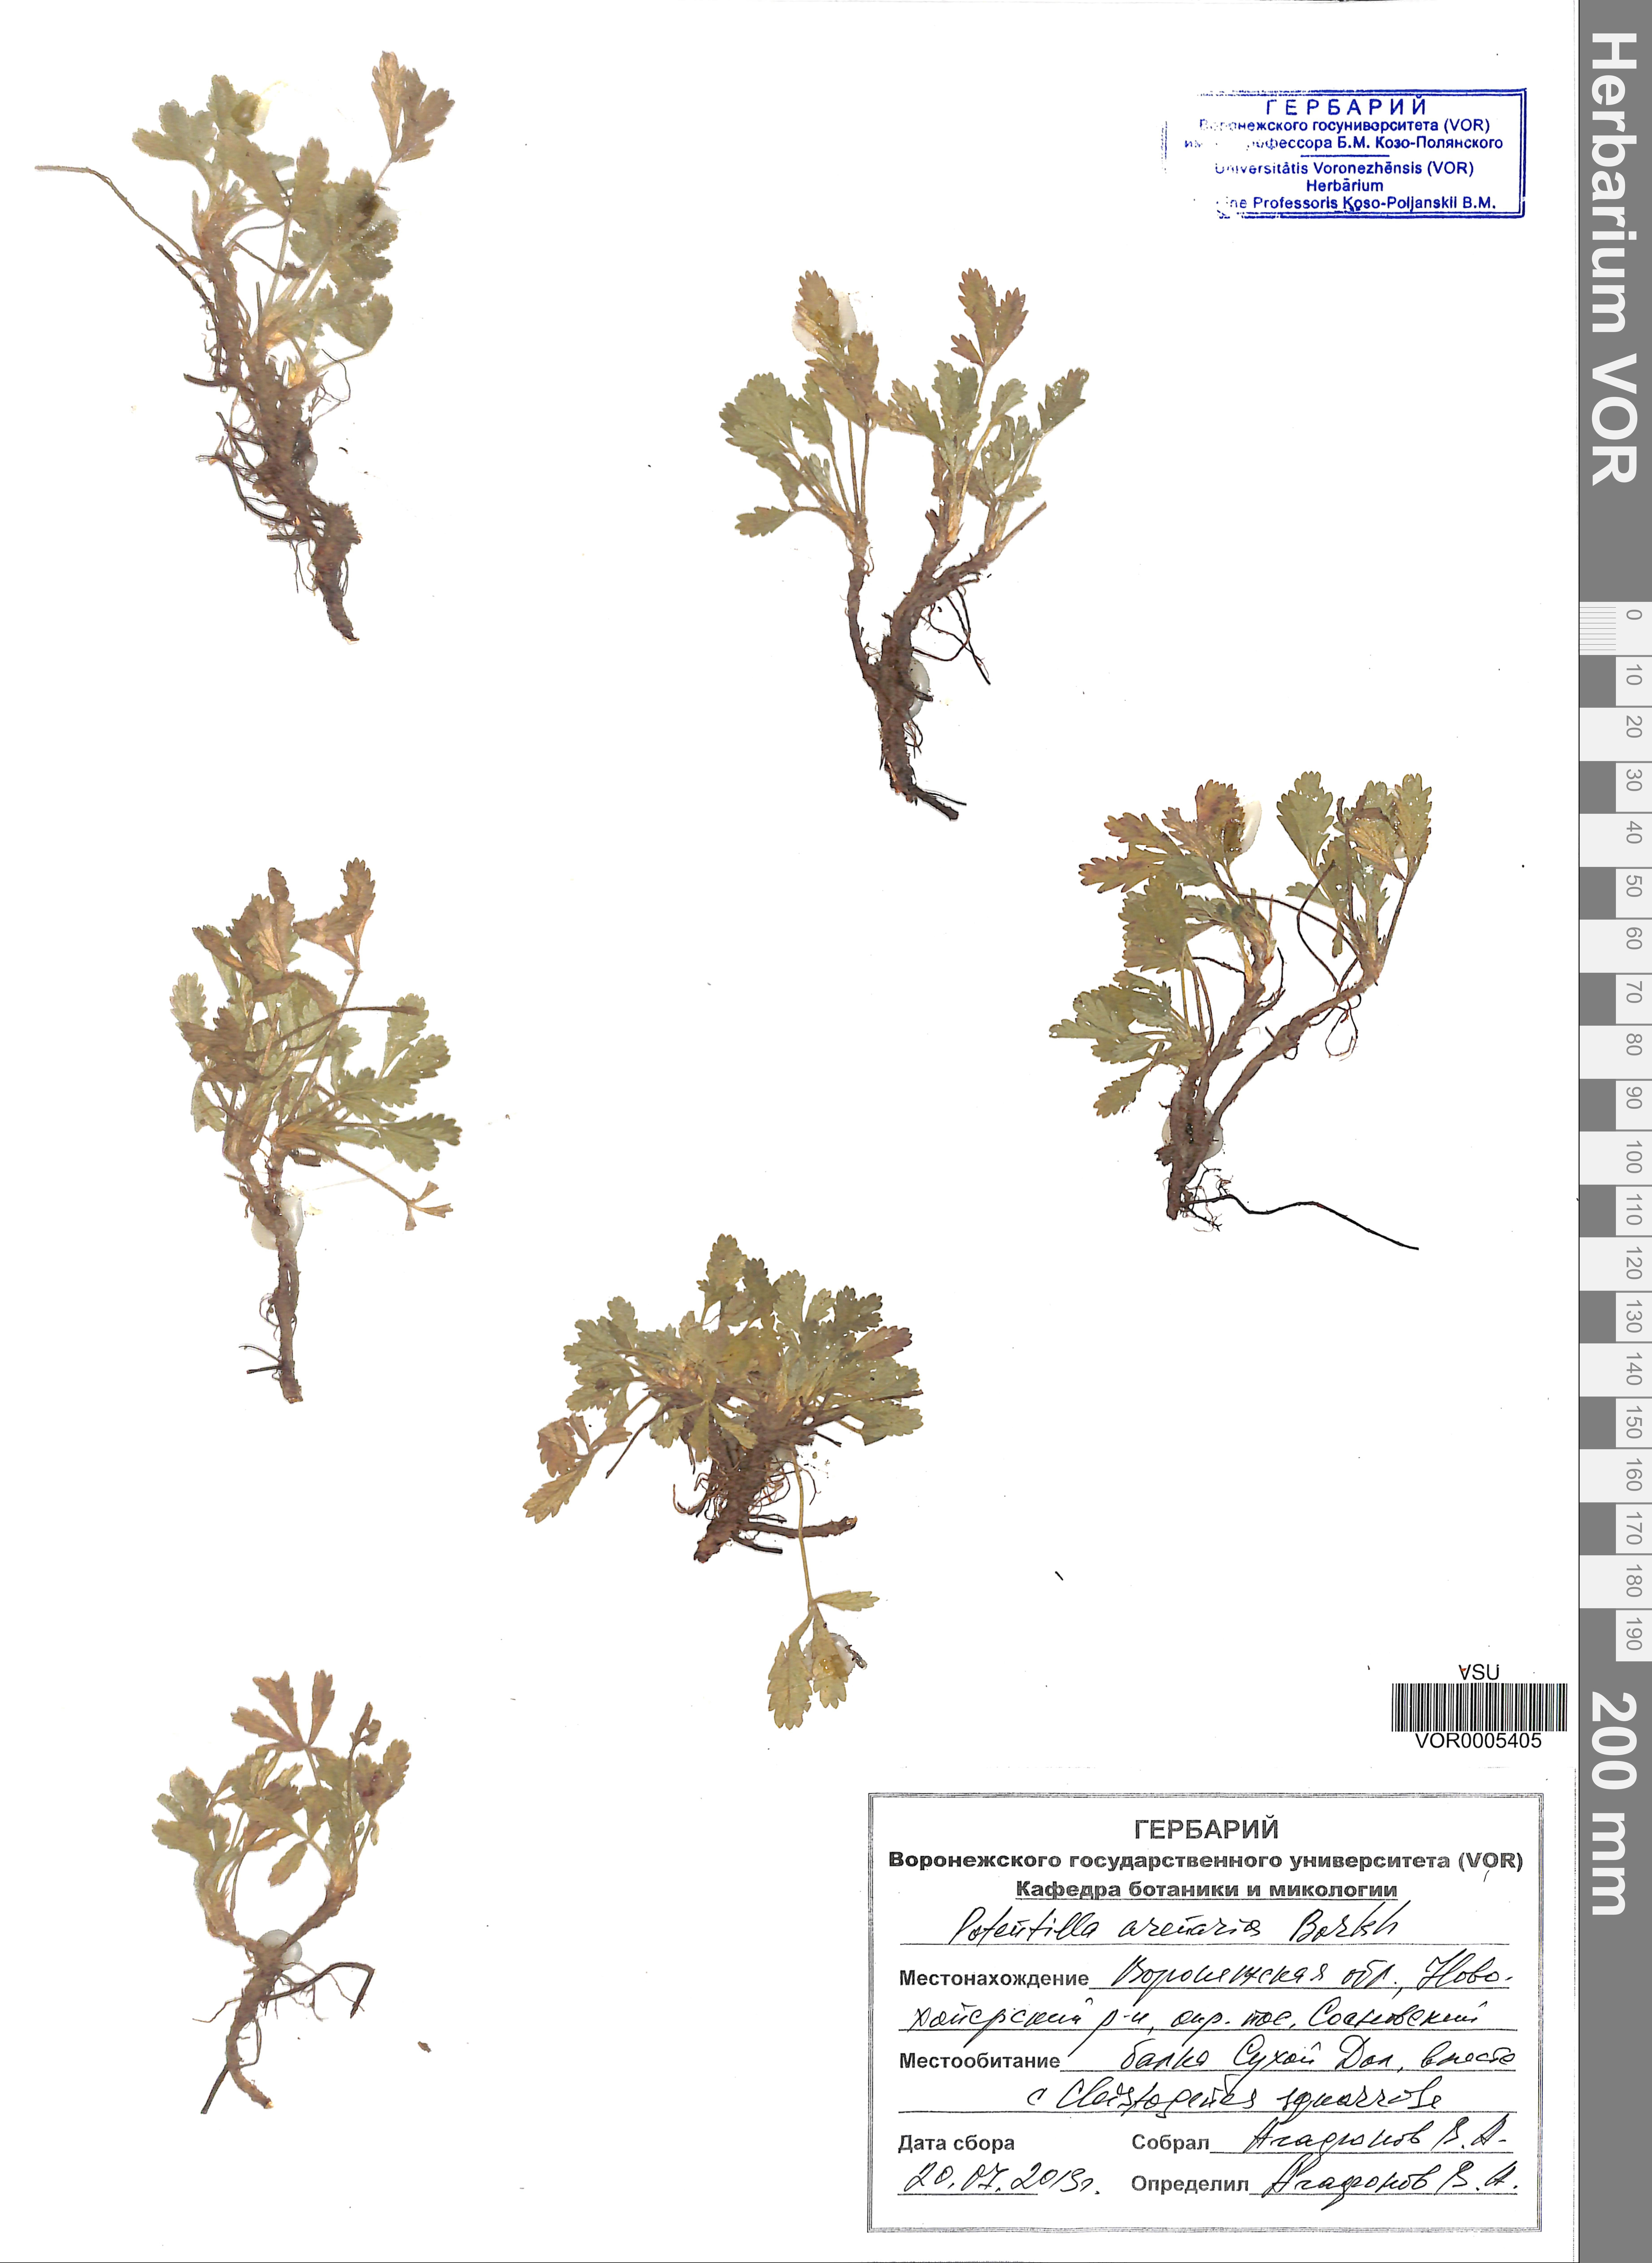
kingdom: Plantae
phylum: Tracheophyta
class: Magnoliopsida
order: Rosales
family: Rosaceae
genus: Potentilla
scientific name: Potentilla cinerea
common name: Ashy cinquefoil
